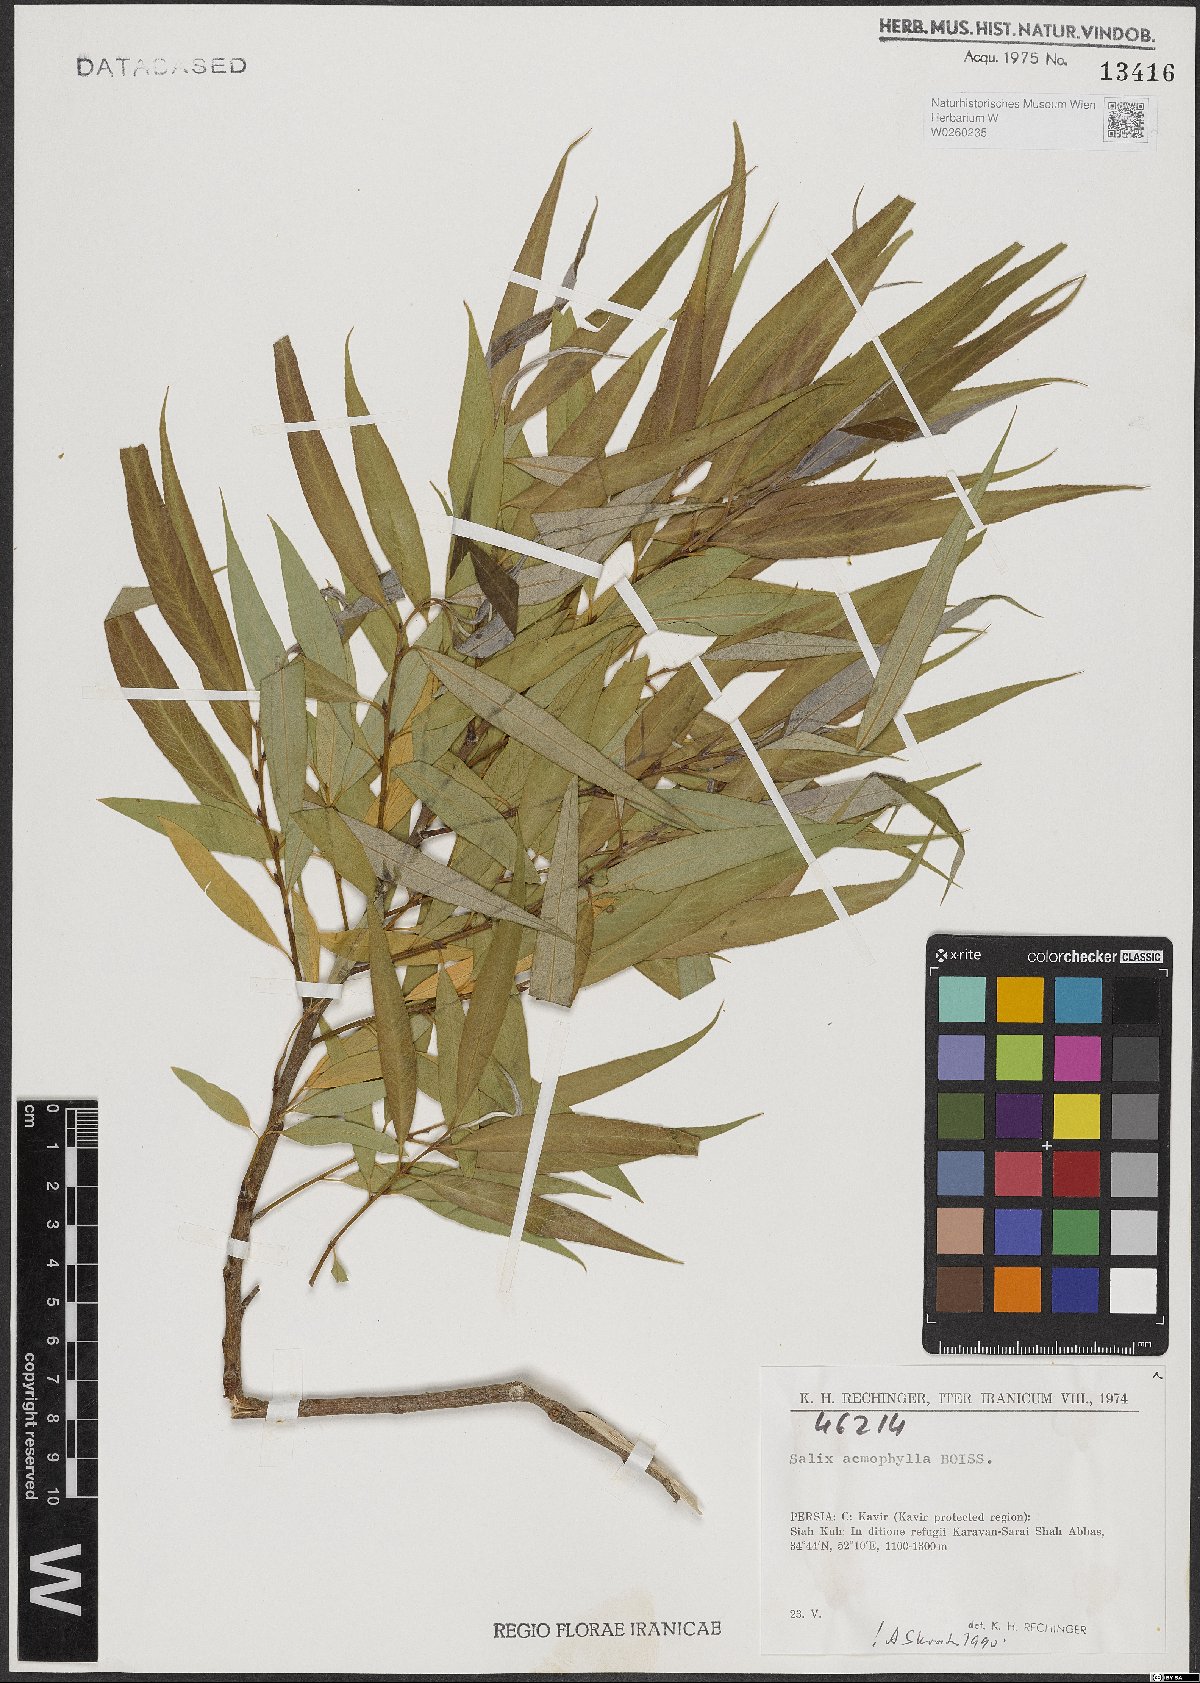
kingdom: Plantae
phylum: Tracheophyta
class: Magnoliopsida
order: Malpighiales
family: Salicaceae
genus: Salix
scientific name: Salix acmophylla
